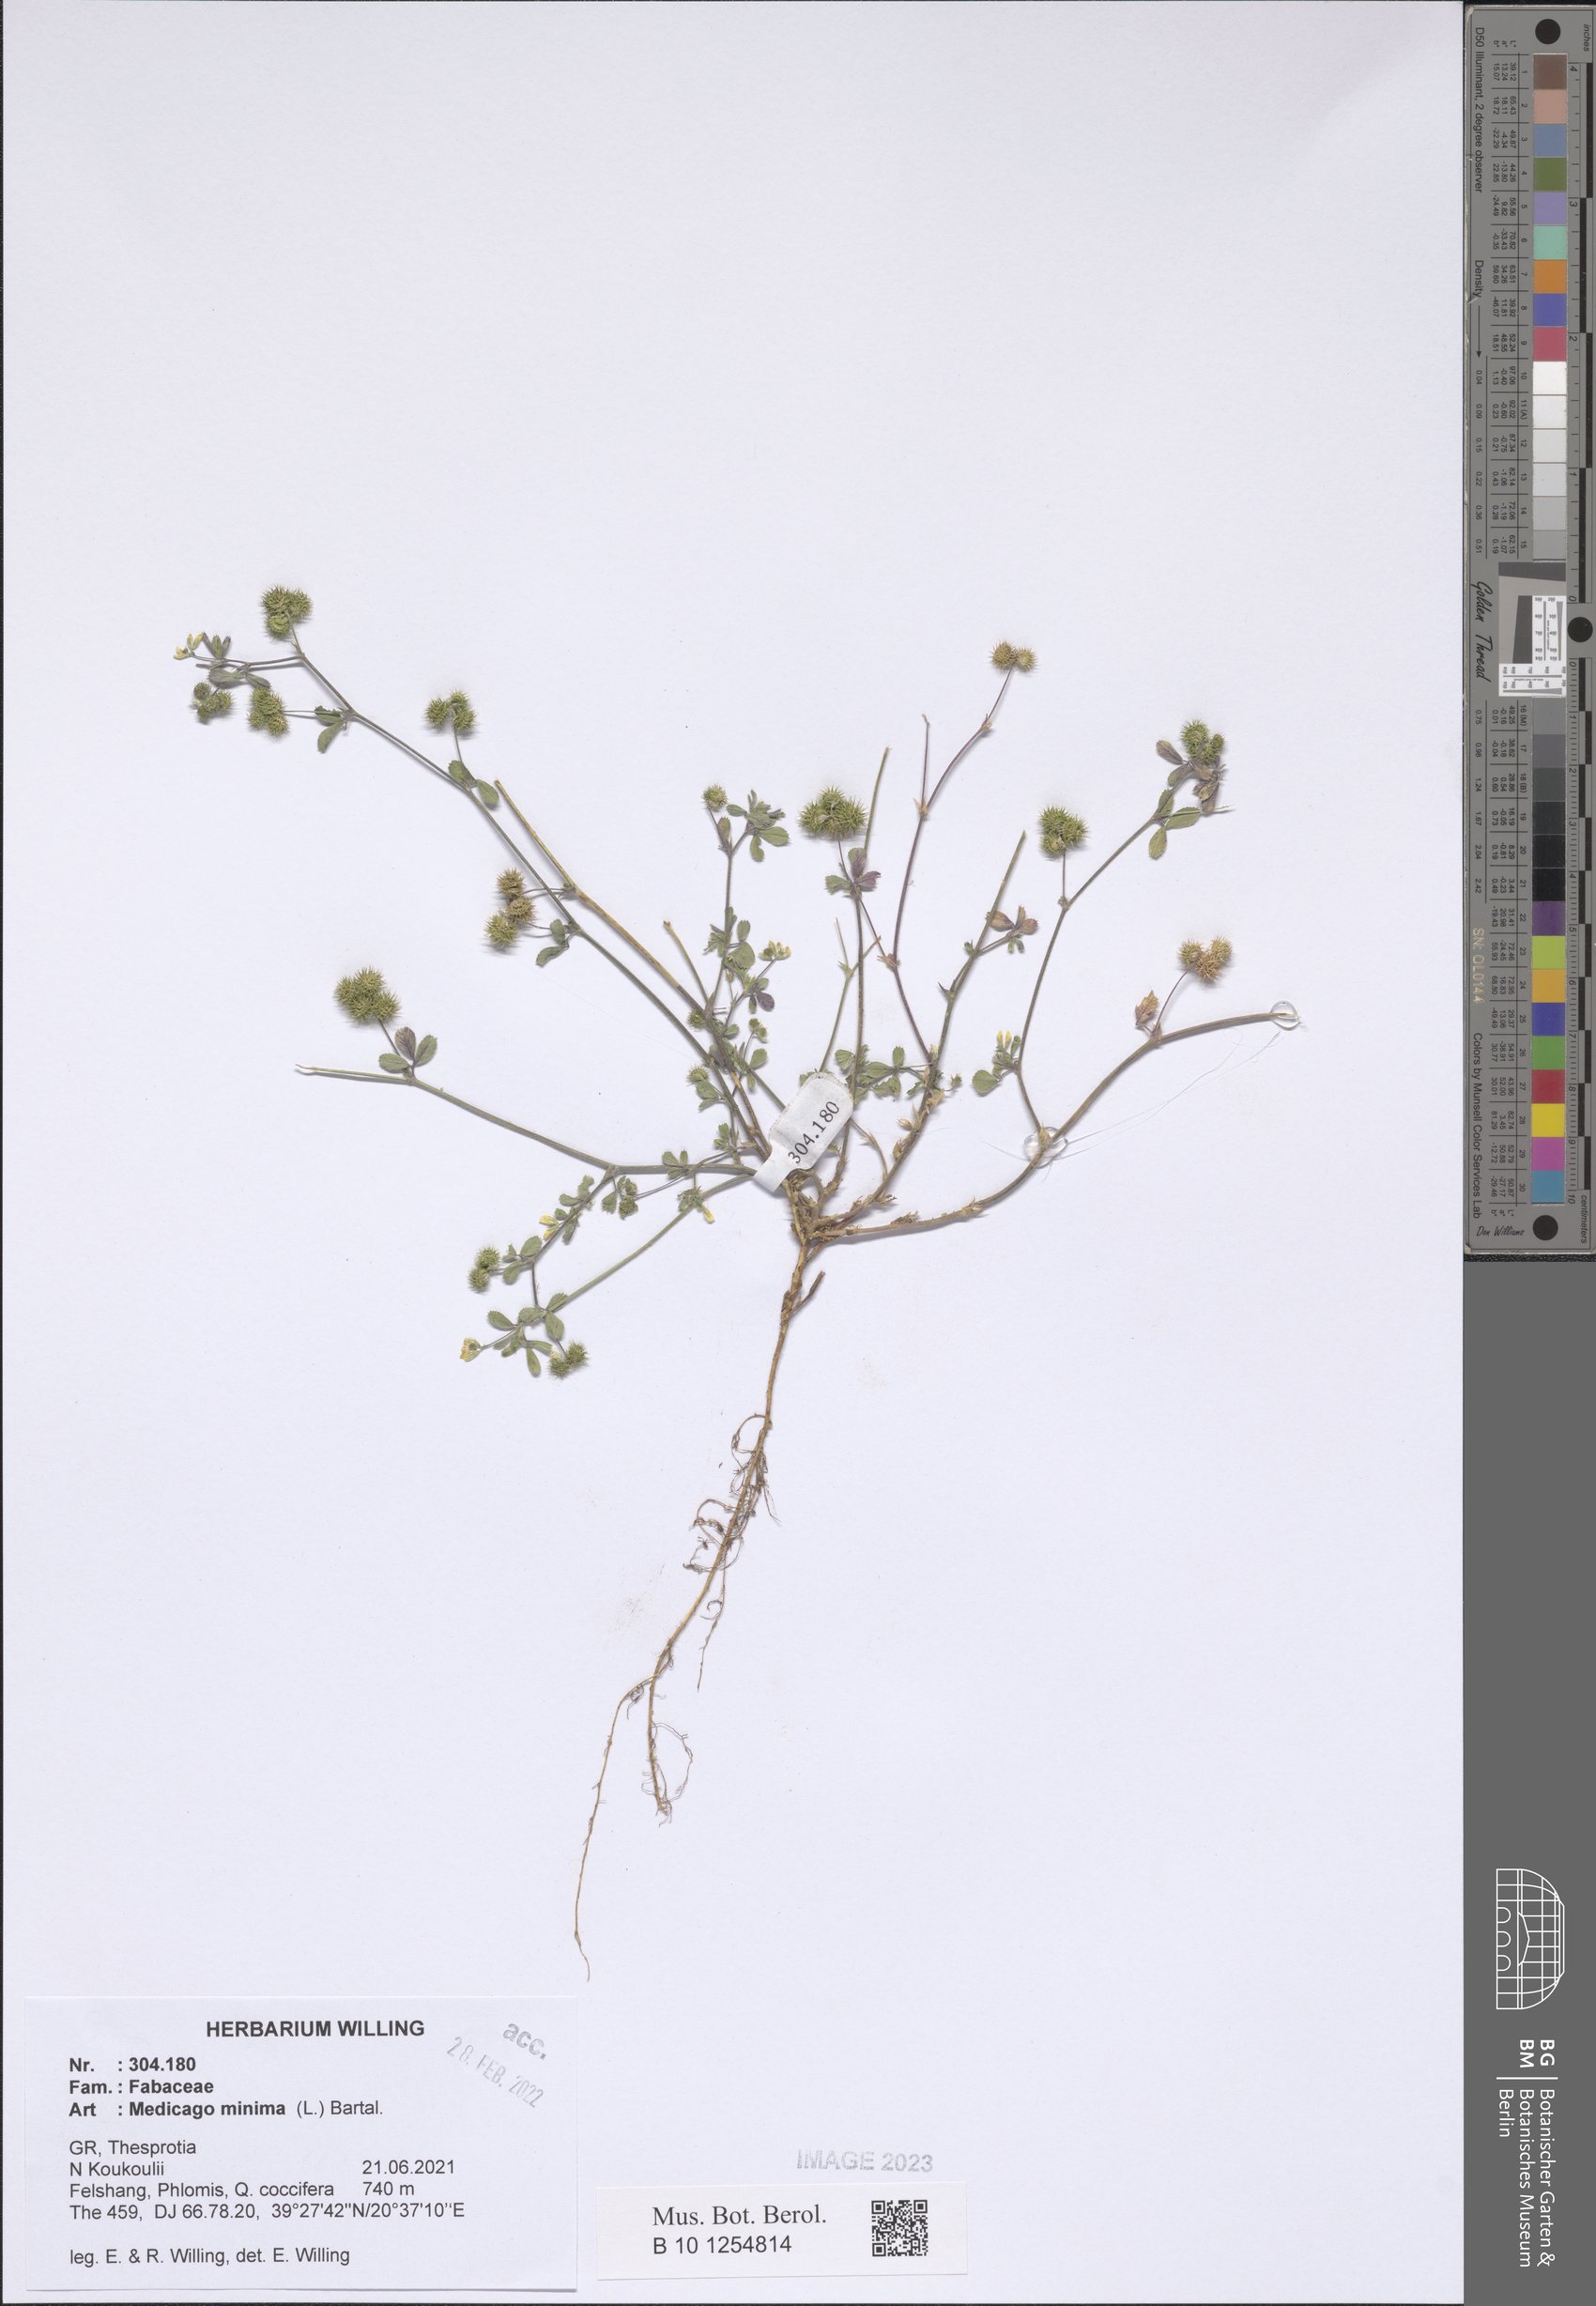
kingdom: Plantae
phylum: Tracheophyta
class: Magnoliopsida
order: Fabales
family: Fabaceae
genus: Medicago
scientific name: Medicago minima
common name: Little bur-clover
